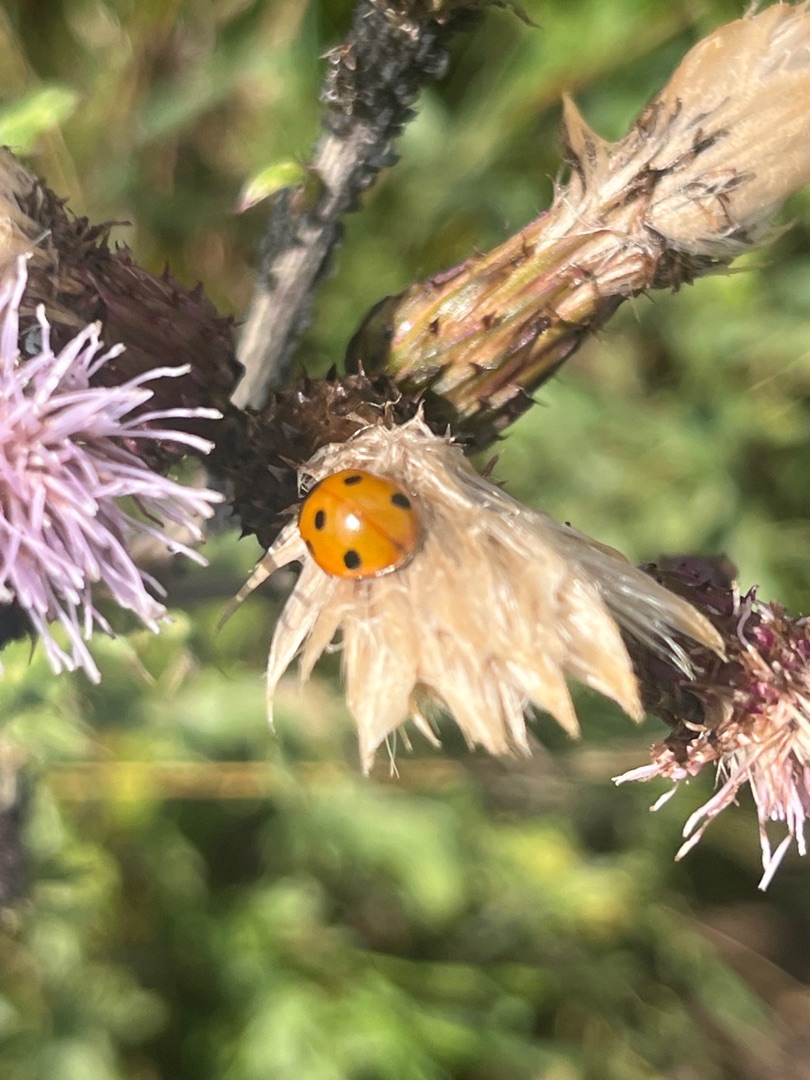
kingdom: Animalia
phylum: Arthropoda
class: Insecta
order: Coleoptera
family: Coccinellidae
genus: Coccinella
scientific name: Coccinella septempunctata
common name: Syvplettet mariehøne
